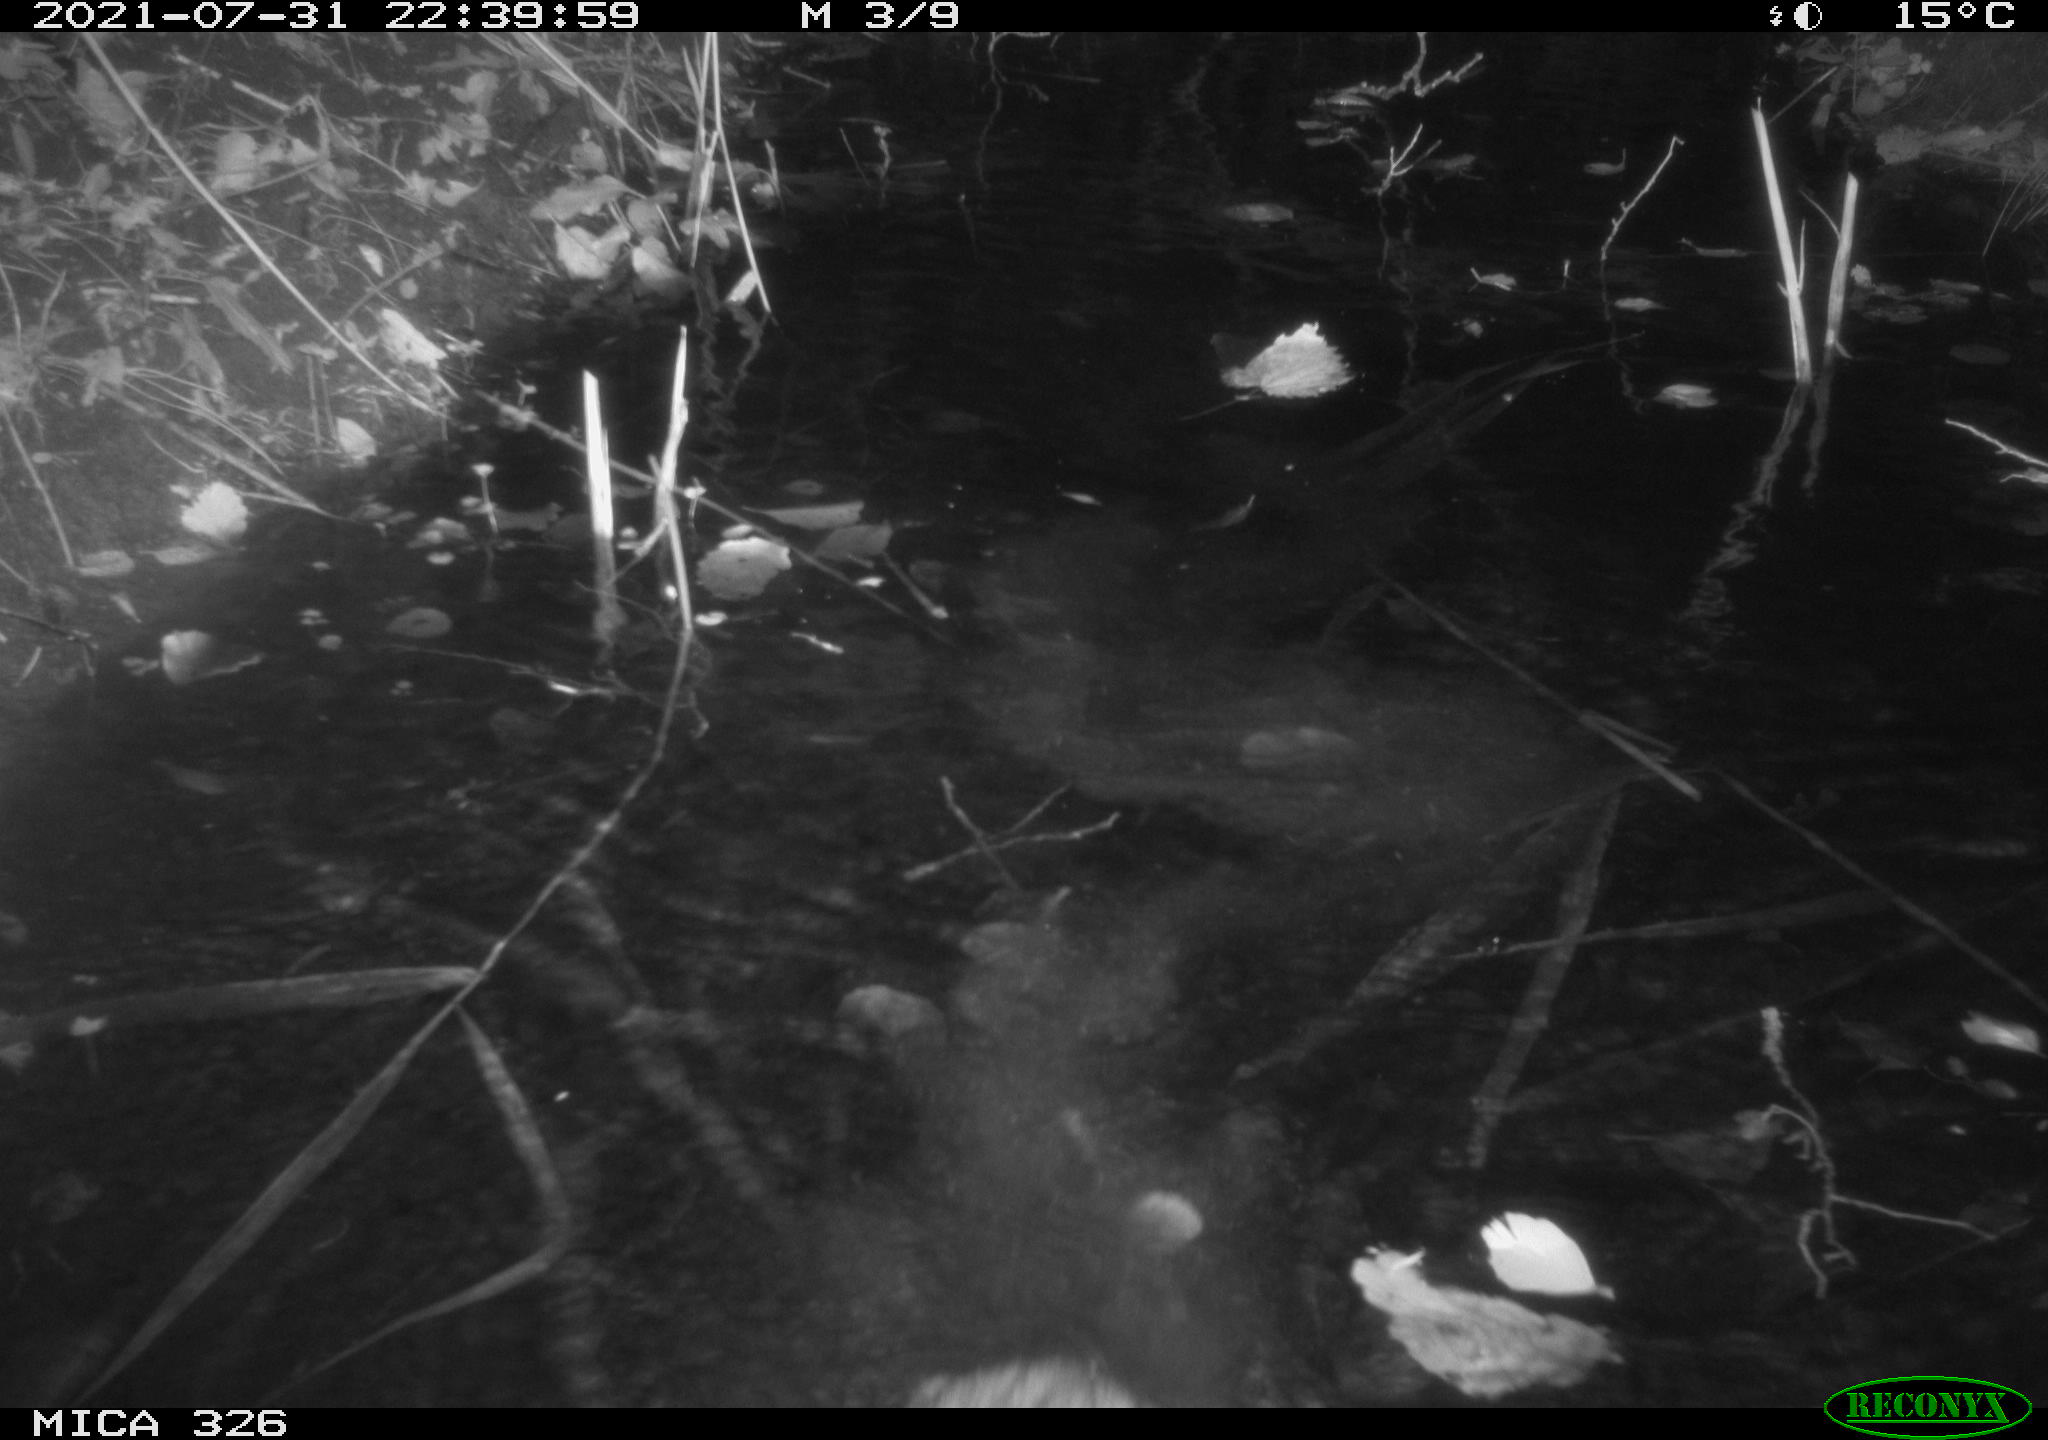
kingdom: Animalia
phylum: Chordata
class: Mammalia
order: Rodentia
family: Myocastoridae
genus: Myocastor
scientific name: Myocastor coypus
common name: Coypu
